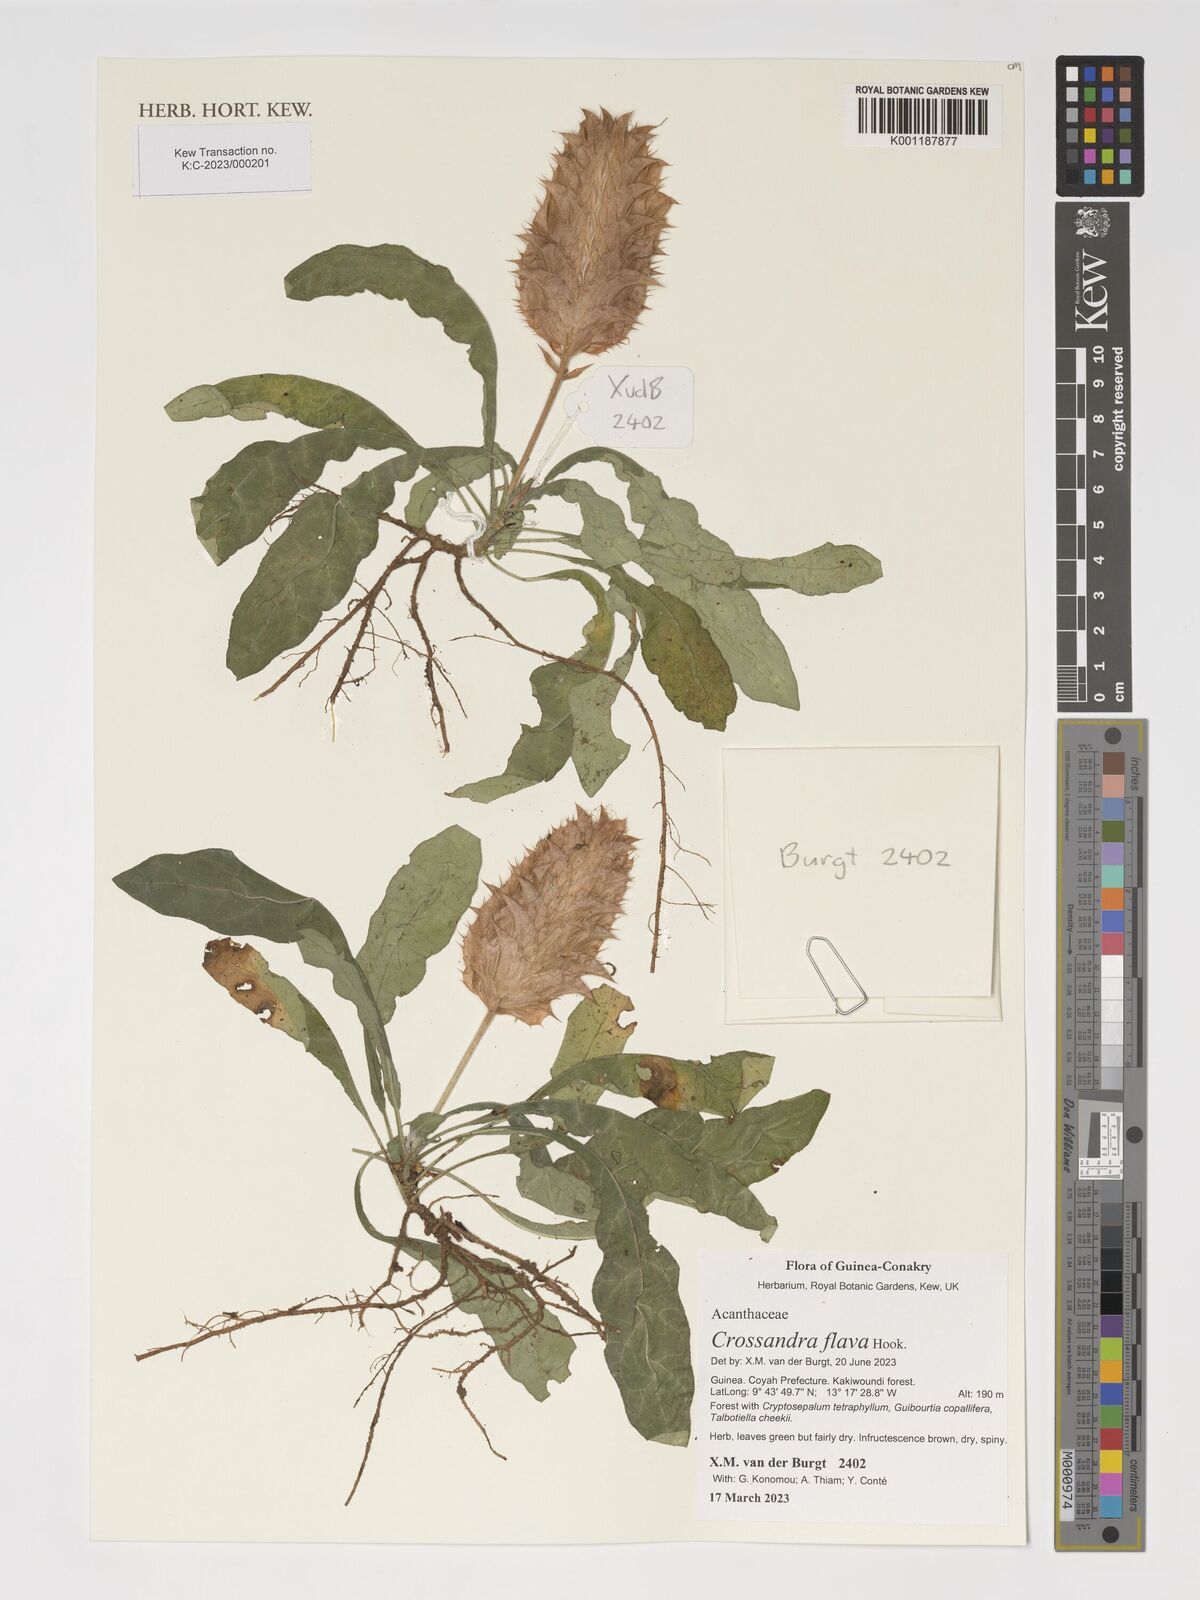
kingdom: Plantae
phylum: Tracheophyta
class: Magnoliopsida
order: Lamiales
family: Acanthaceae
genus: Crossandra
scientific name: Crossandra flava
